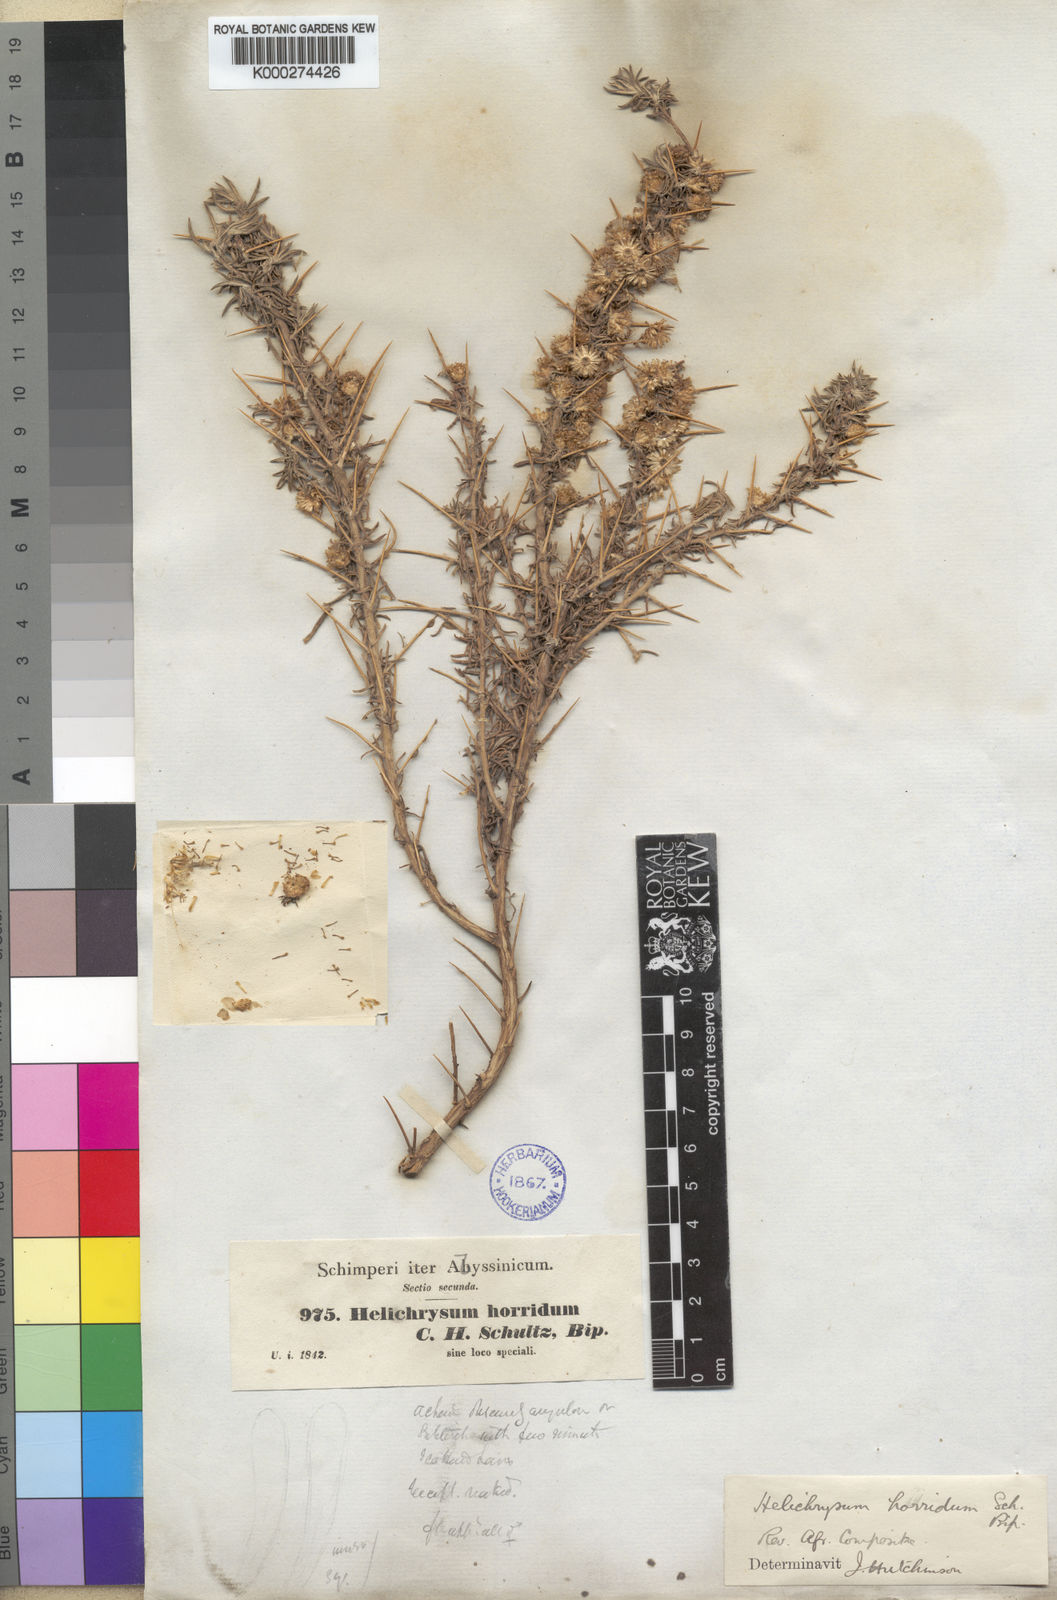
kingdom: Plantae
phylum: Tracheophyta
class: Magnoliopsida
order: Asterales
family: Asteraceae
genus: Helichrysum
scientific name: Helichrysum horridum
